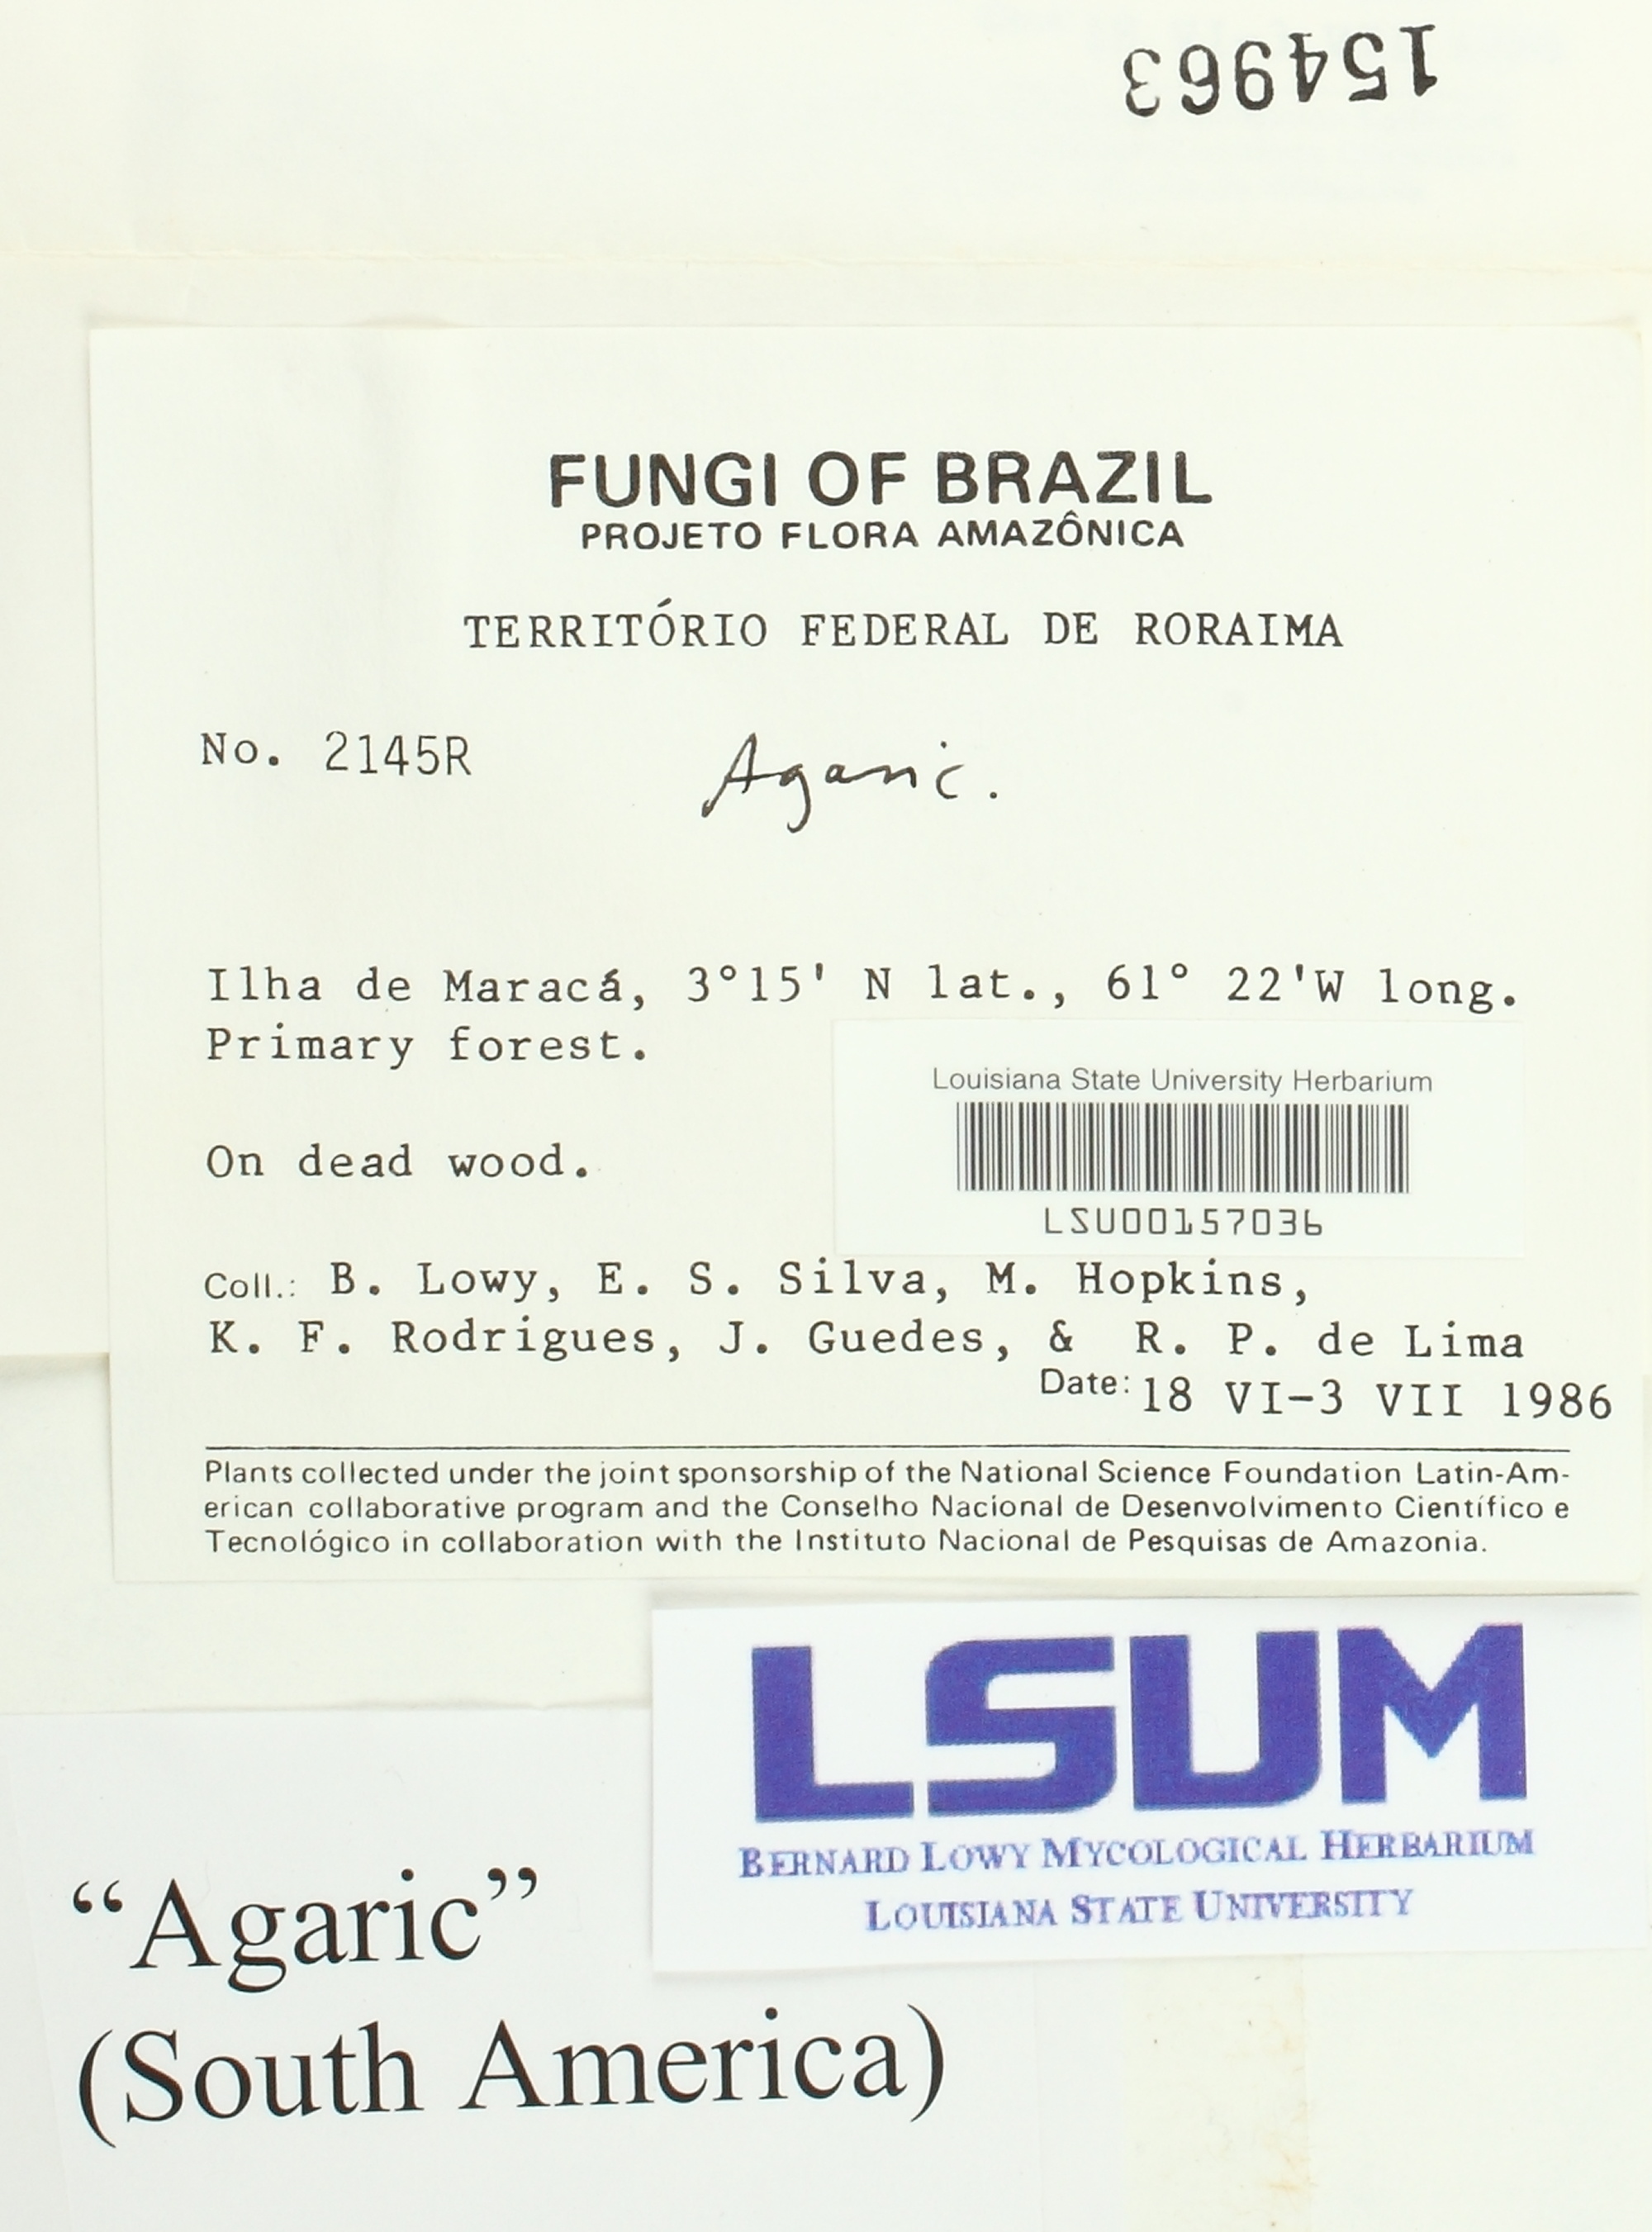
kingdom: Fungi
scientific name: Fungi
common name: Fungi
